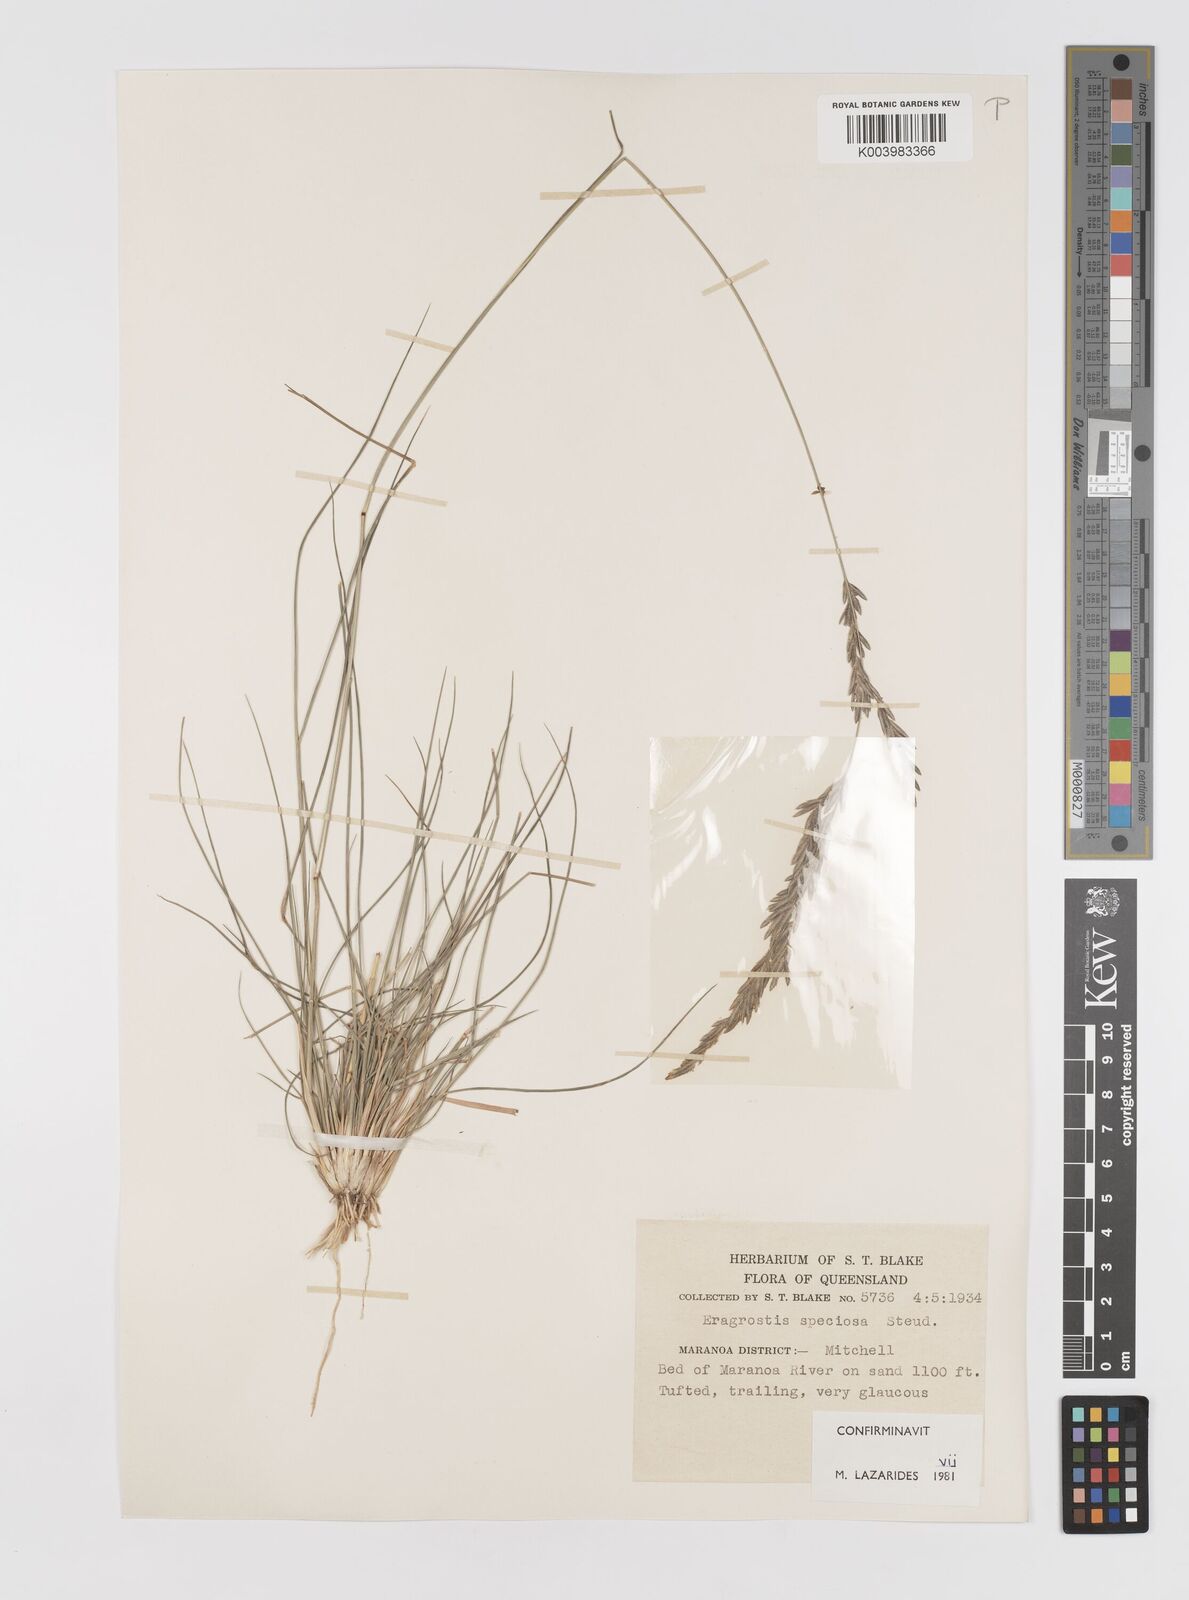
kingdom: Plantae
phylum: Tracheophyta
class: Liliopsida
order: Poales
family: Poaceae
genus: Eragrostis
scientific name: Eragrostis speciosa
